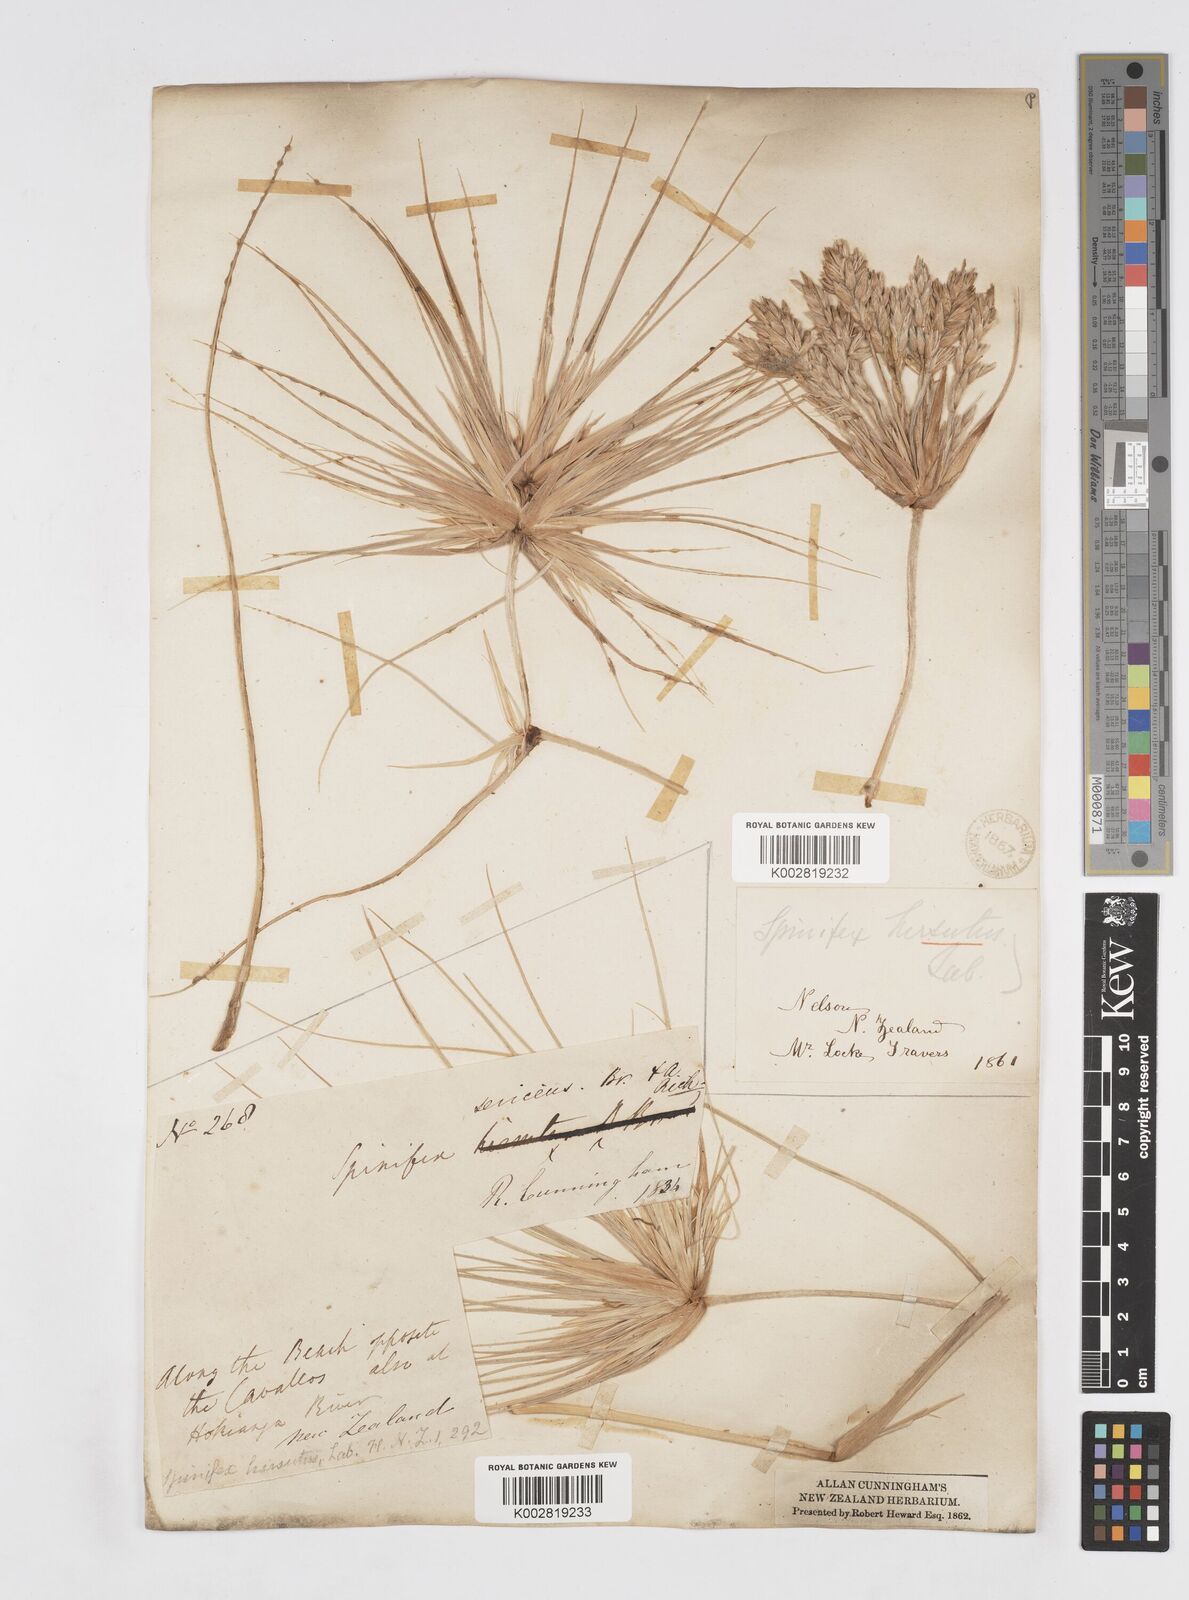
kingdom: Plantae
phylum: Tracheophyta
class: Liliopsida
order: Poales
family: Poaceae
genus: Spinifex
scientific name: Spinifex sericeus
